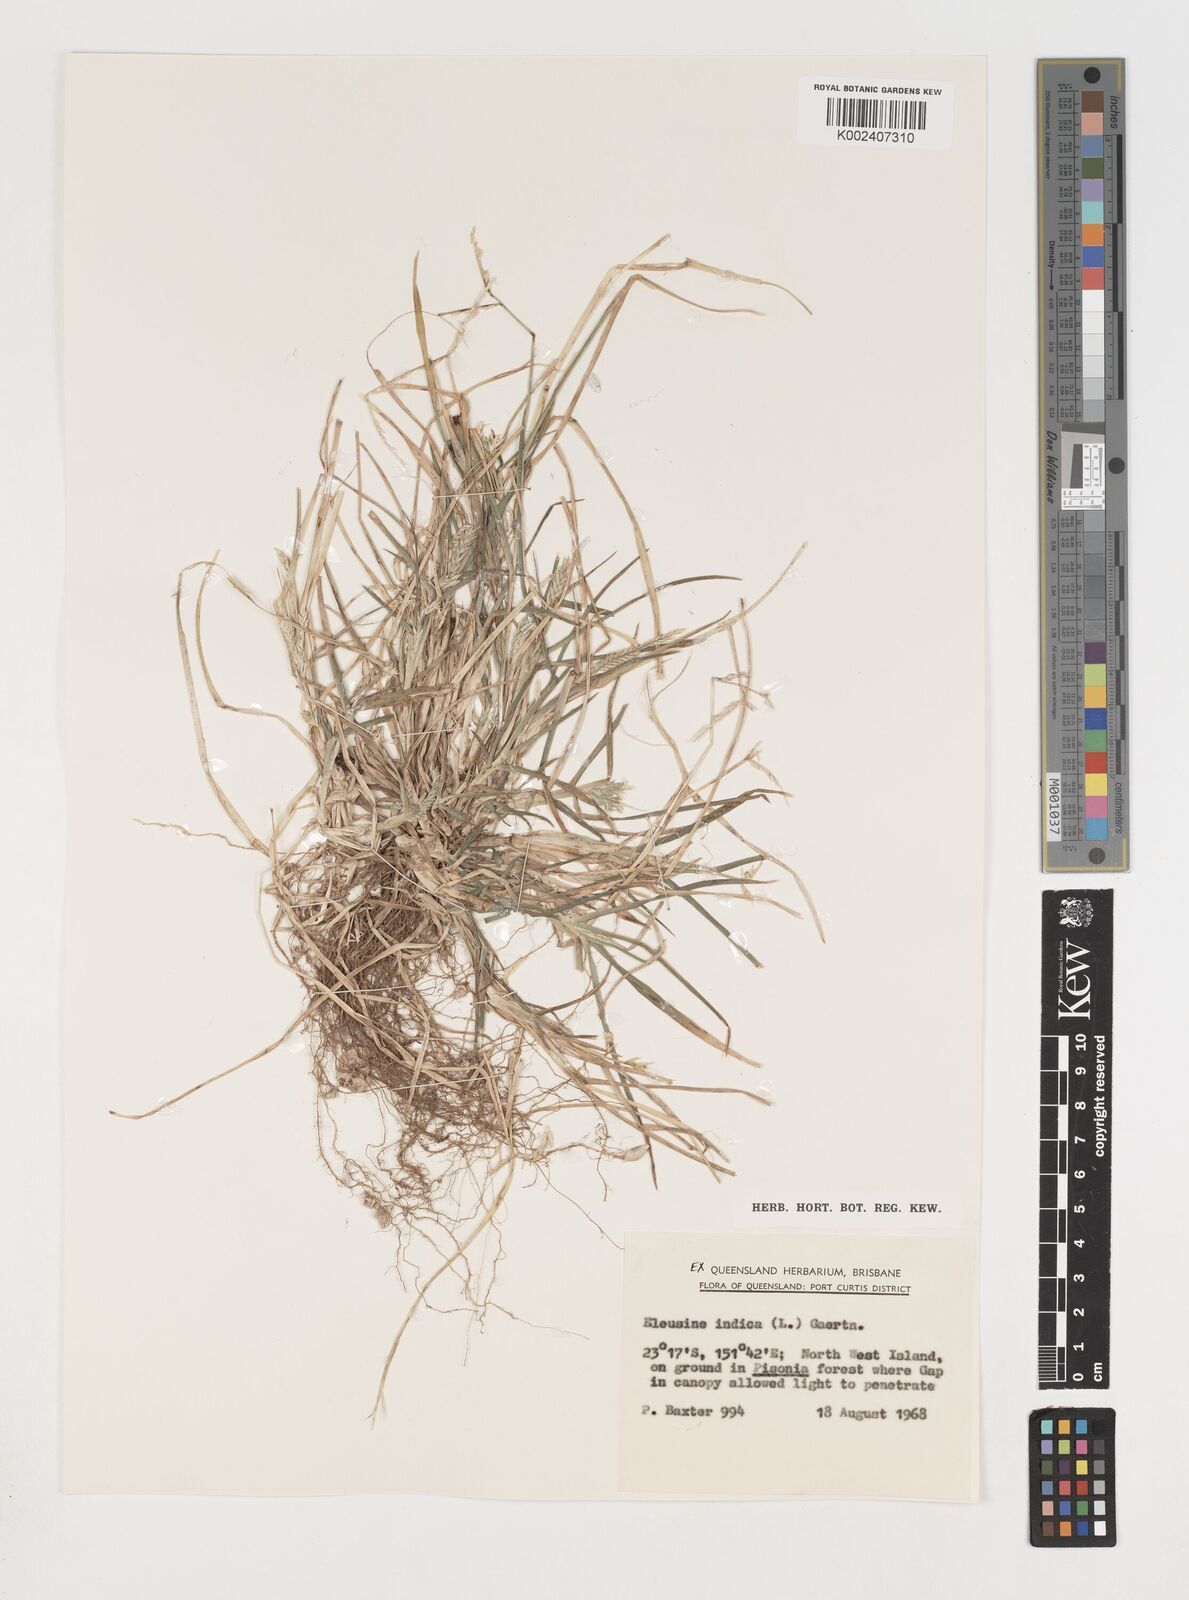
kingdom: Plantae
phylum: Tracheophyta
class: Liliopsida
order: Poales
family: Poaceae
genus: Eleusine
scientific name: Eleusine indica
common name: Yard-grass
